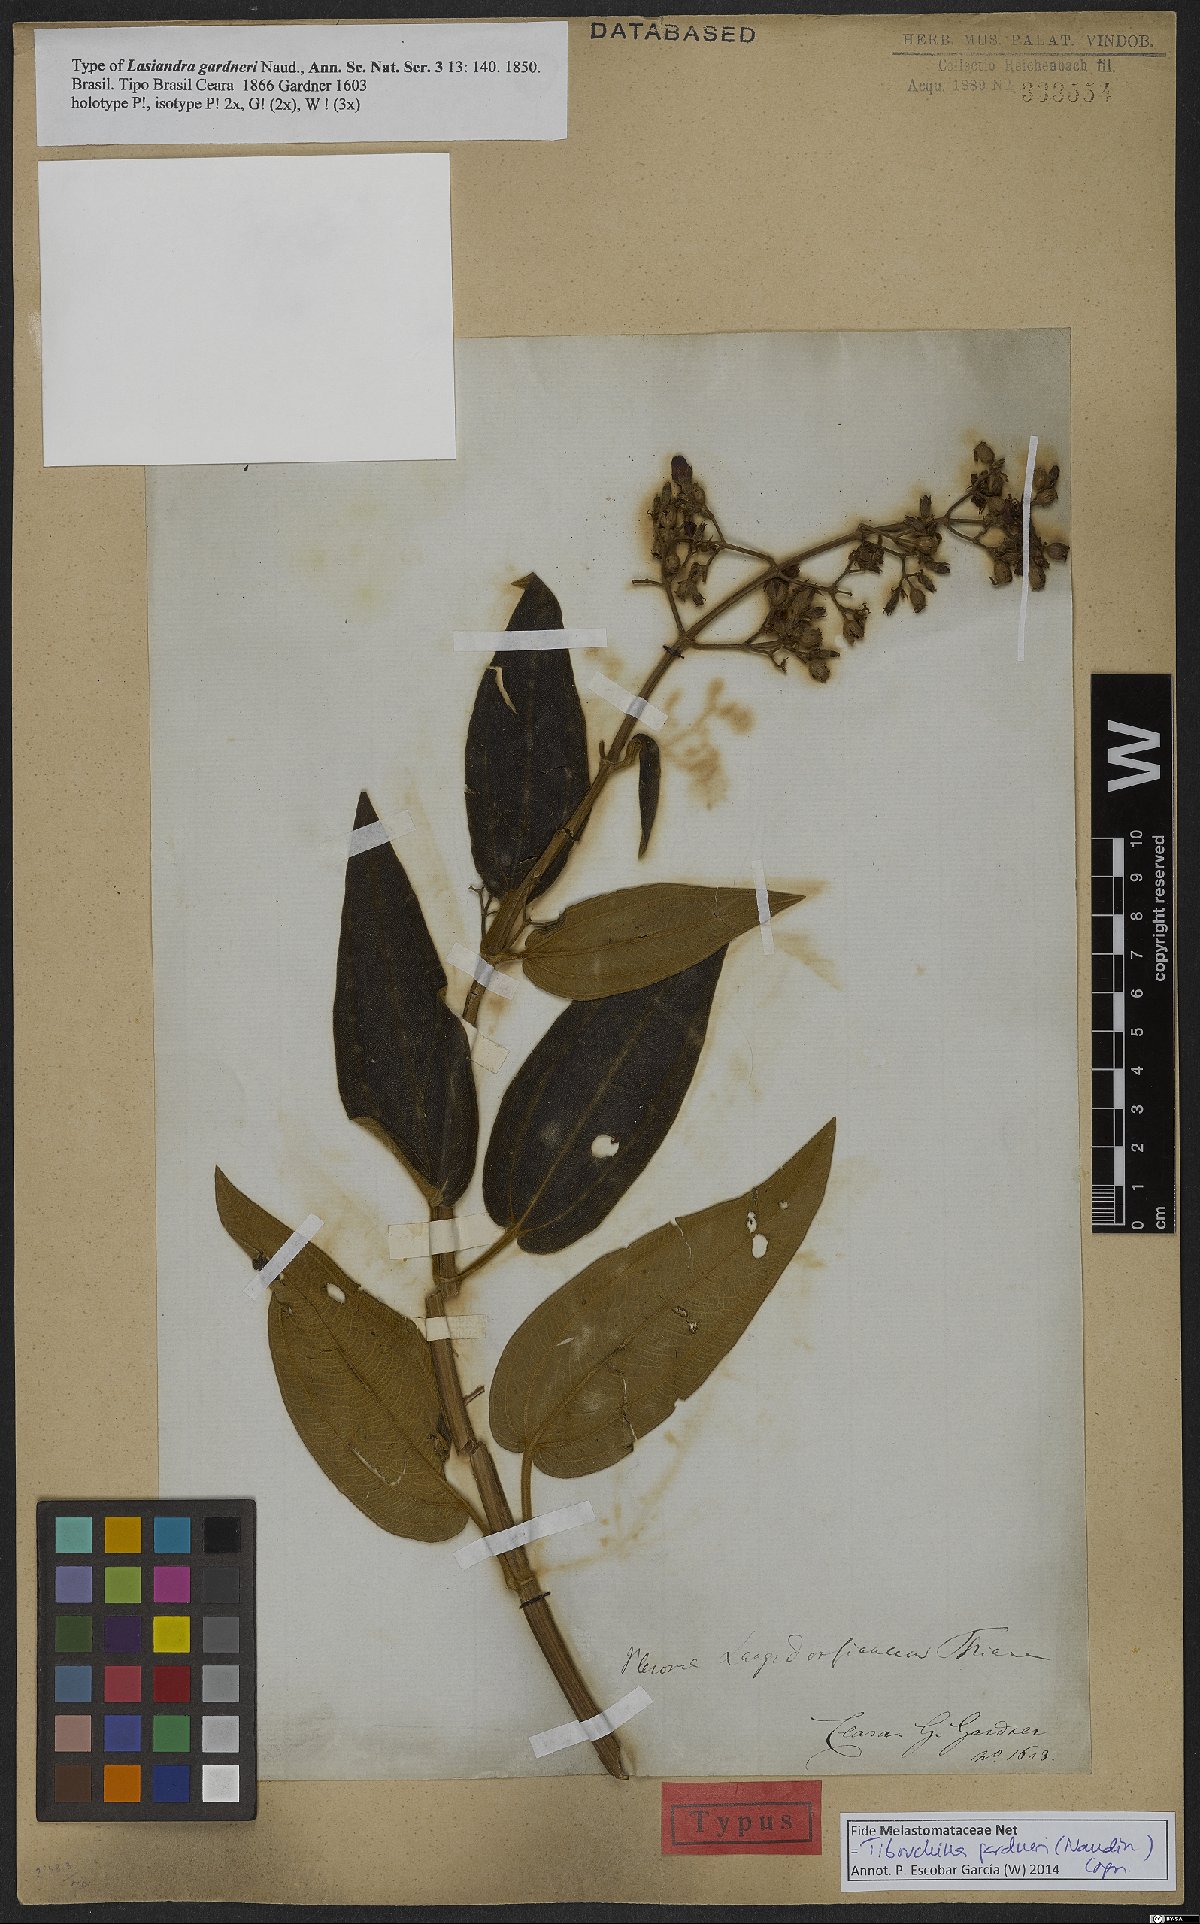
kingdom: Plantae
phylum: Tracheophyta
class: Magnoliopsida
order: Myrtales
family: Melastomataceae
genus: Pleroma
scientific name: Pleroma gardneri
